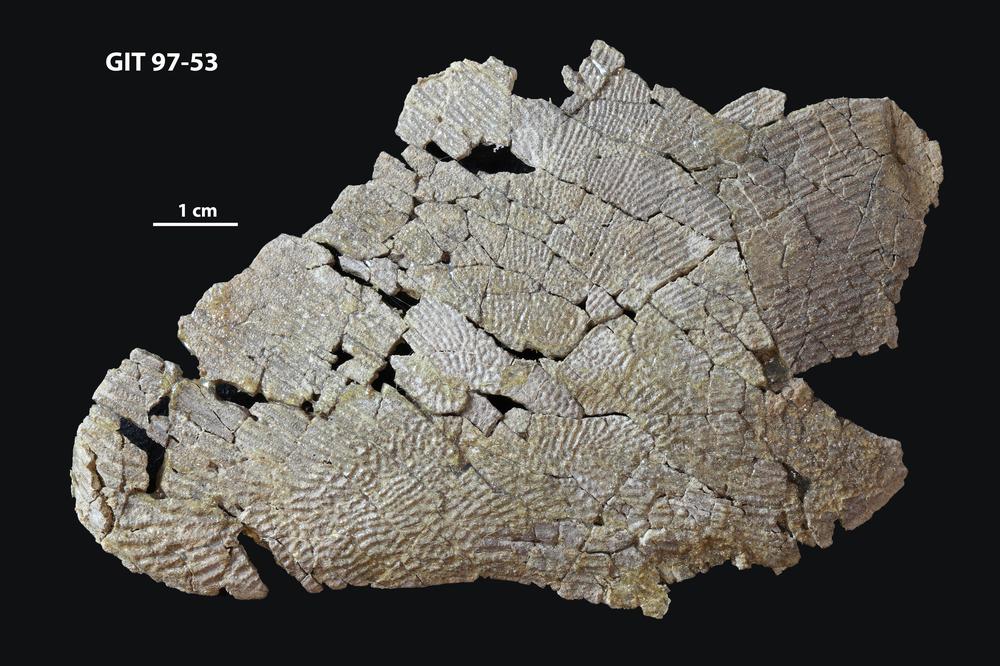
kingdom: Animalia
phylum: Chordata
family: Holonematidae
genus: Holonema
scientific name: Holonema
